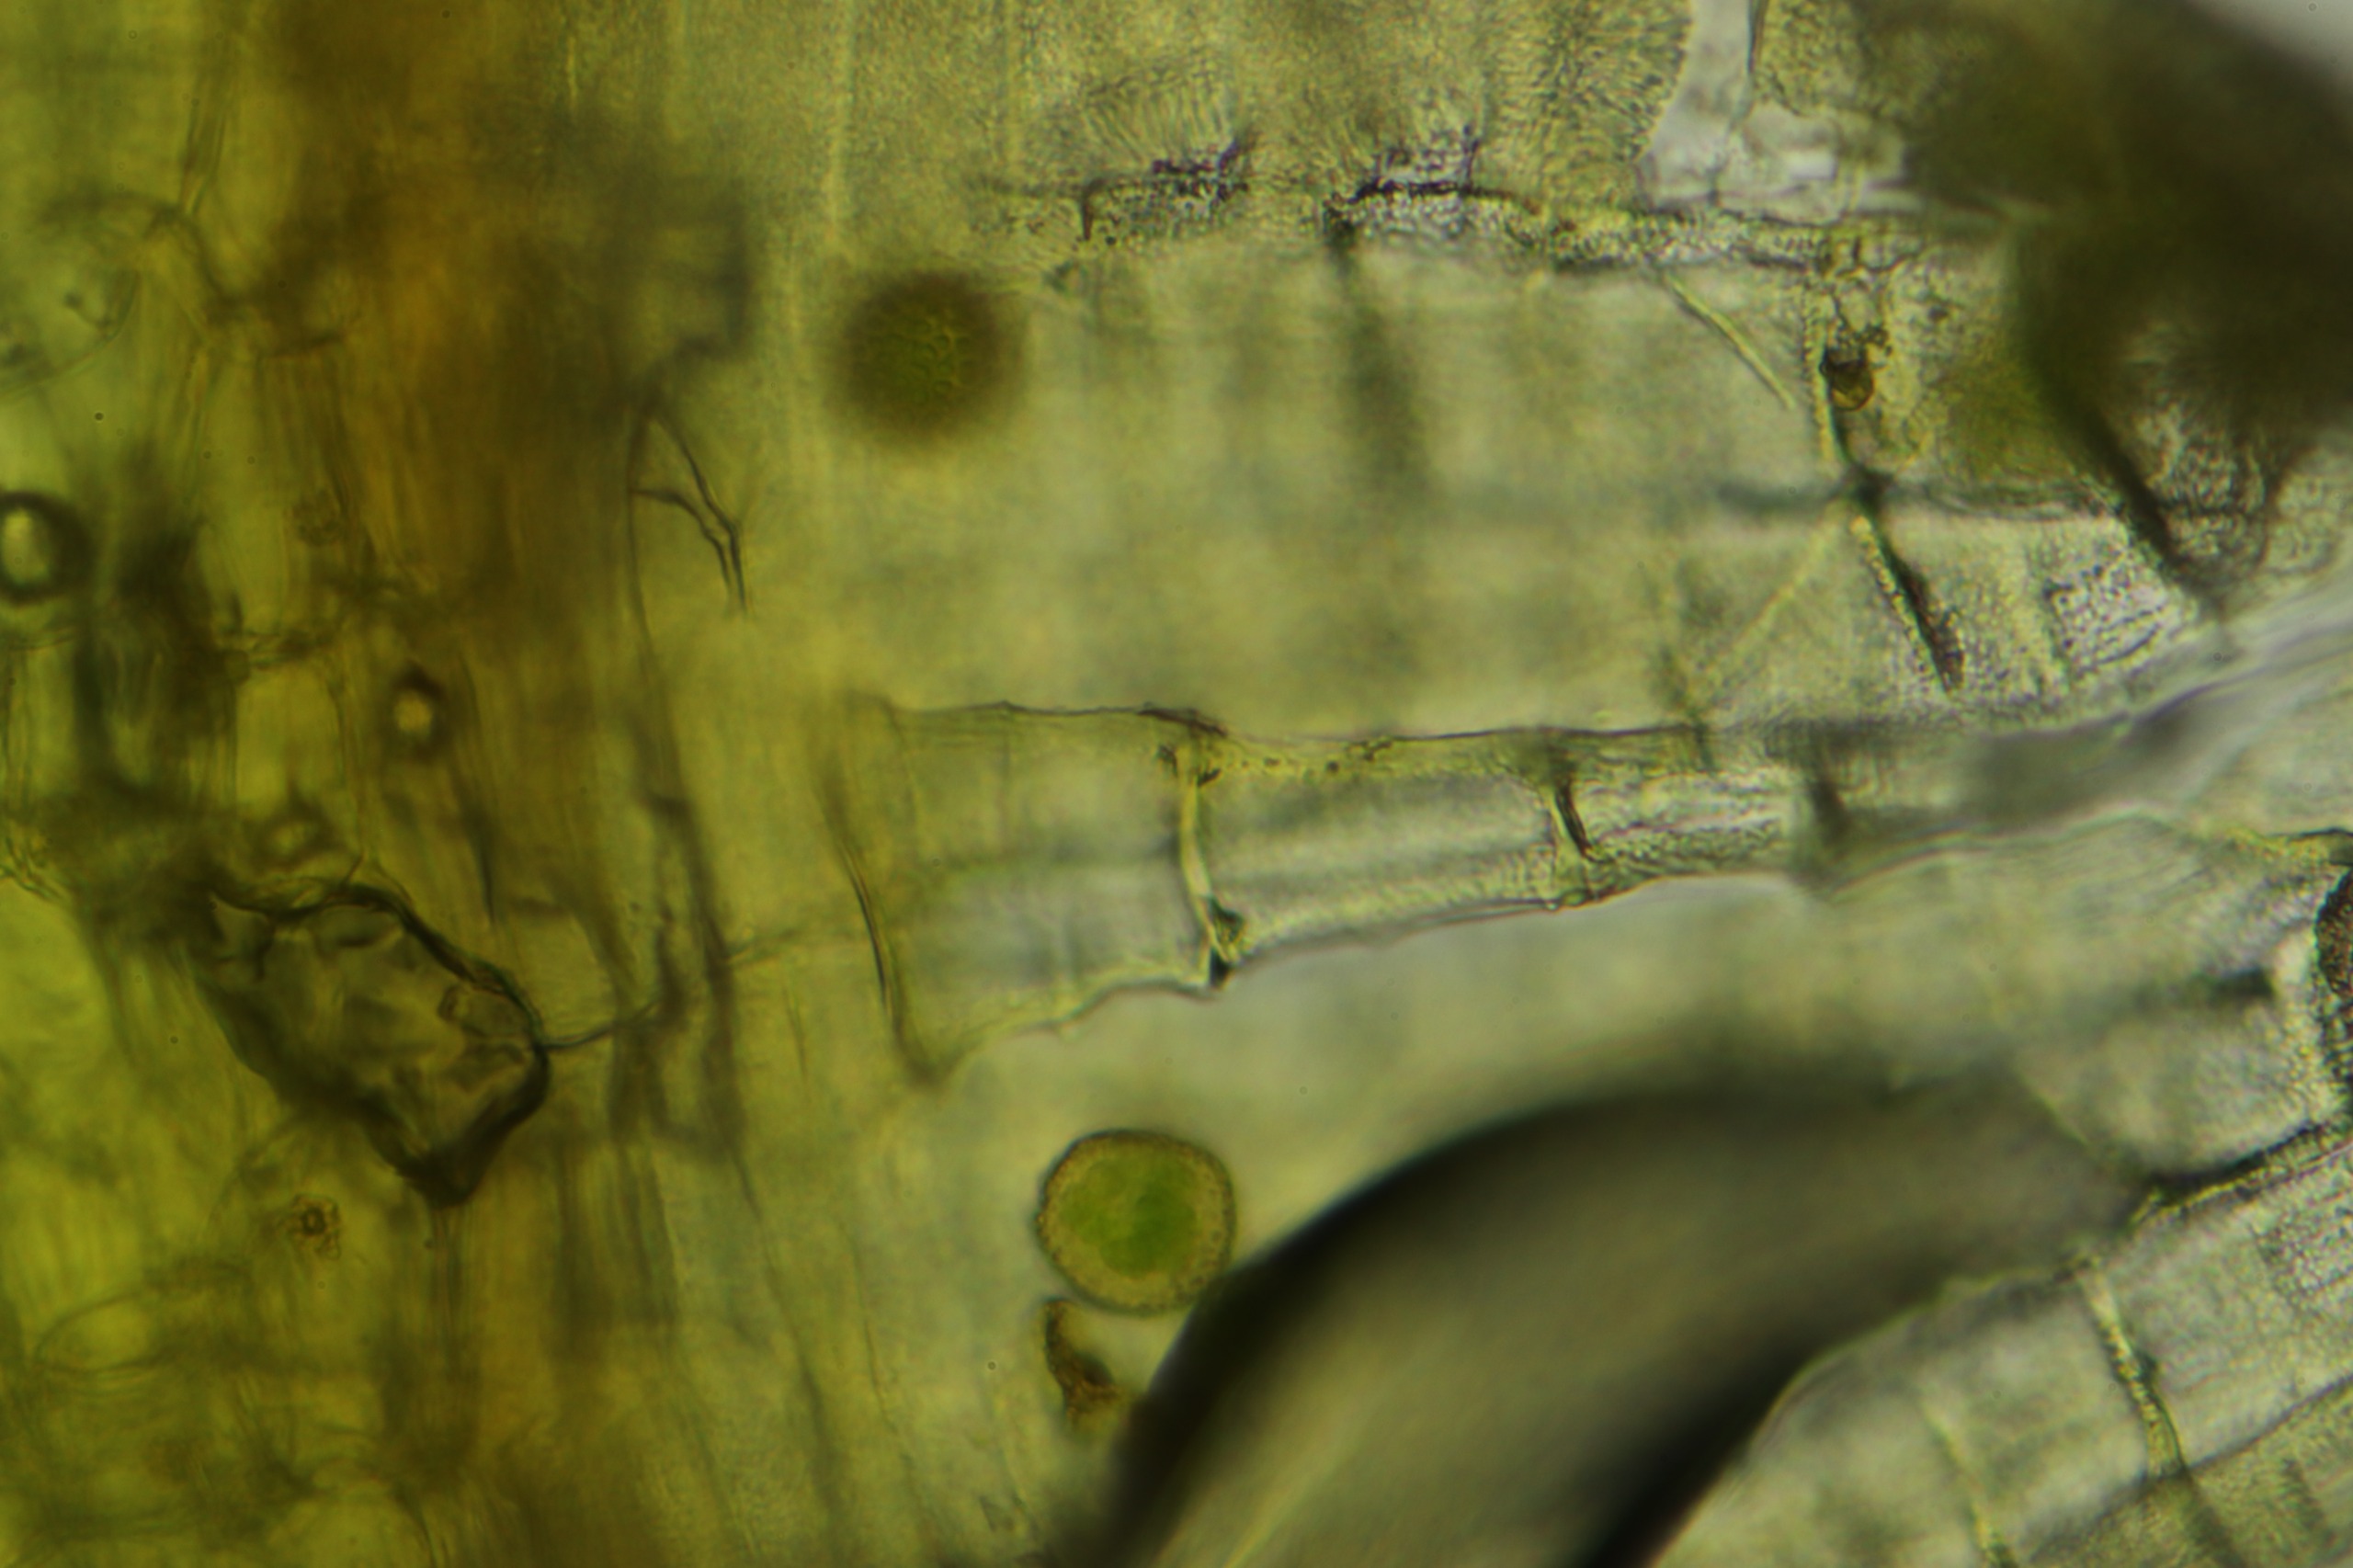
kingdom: Plantae
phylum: Bryophyta
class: Bryopsida
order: Orthotrichales
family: Orthotrichaceae
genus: Ulota
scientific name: Ulota crispa
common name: Kruset låddenhætte
